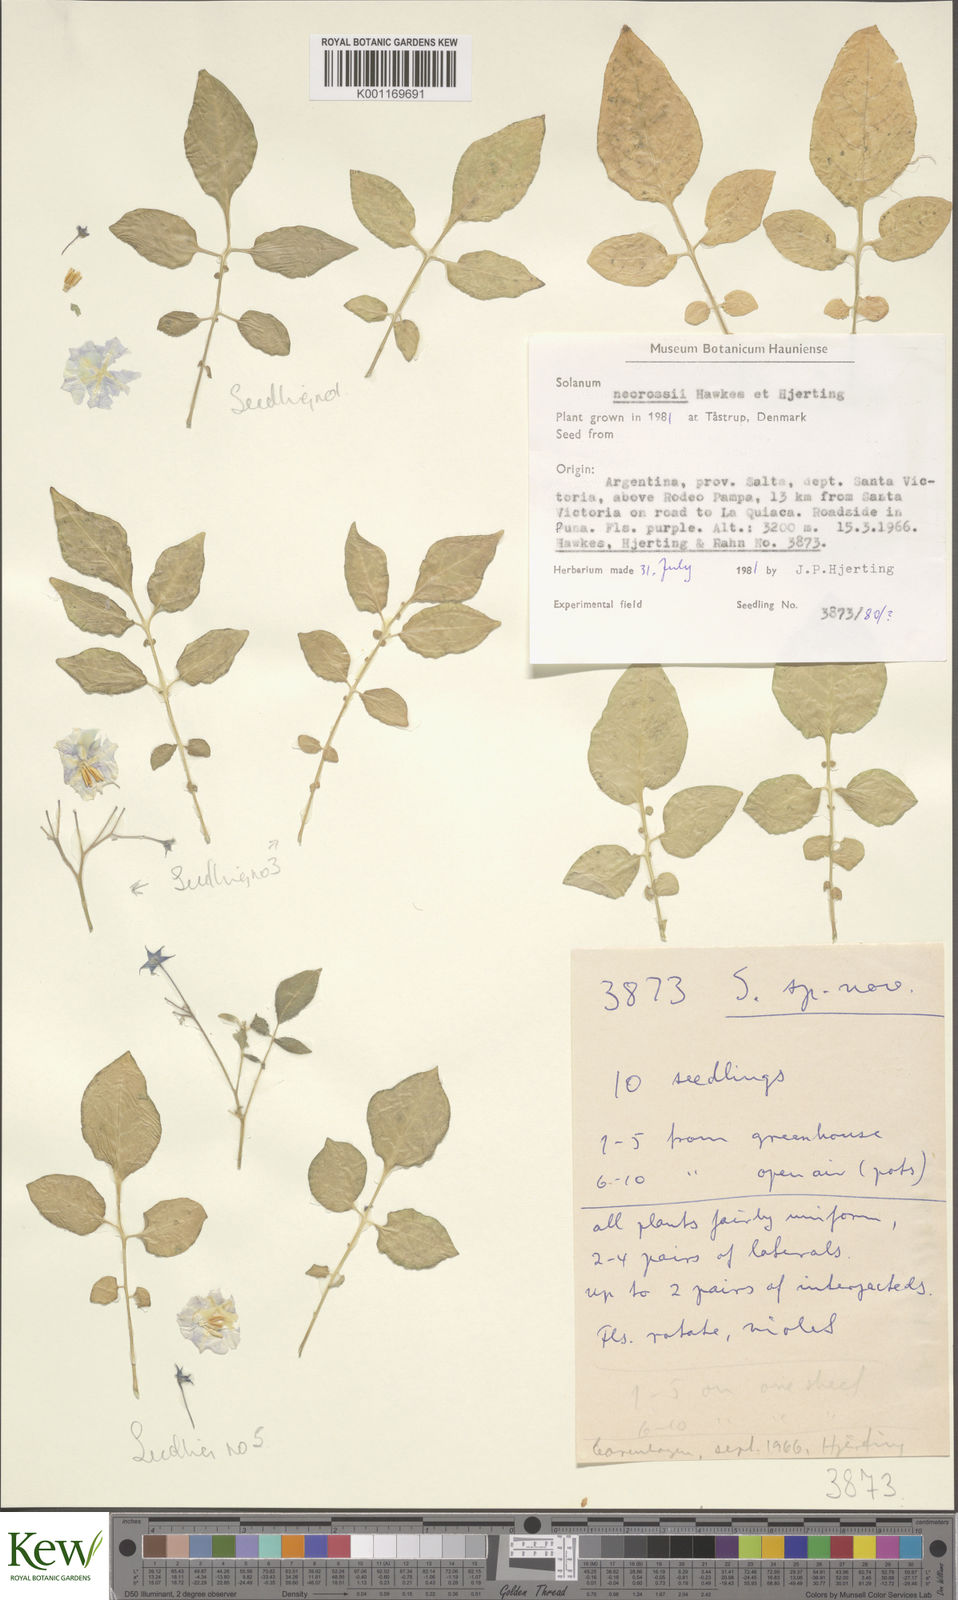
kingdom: Plantae
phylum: Tracheophyta
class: Magnoliopsida
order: Solanales
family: Solanaceae
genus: Solanum
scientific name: Solanum neorossii
